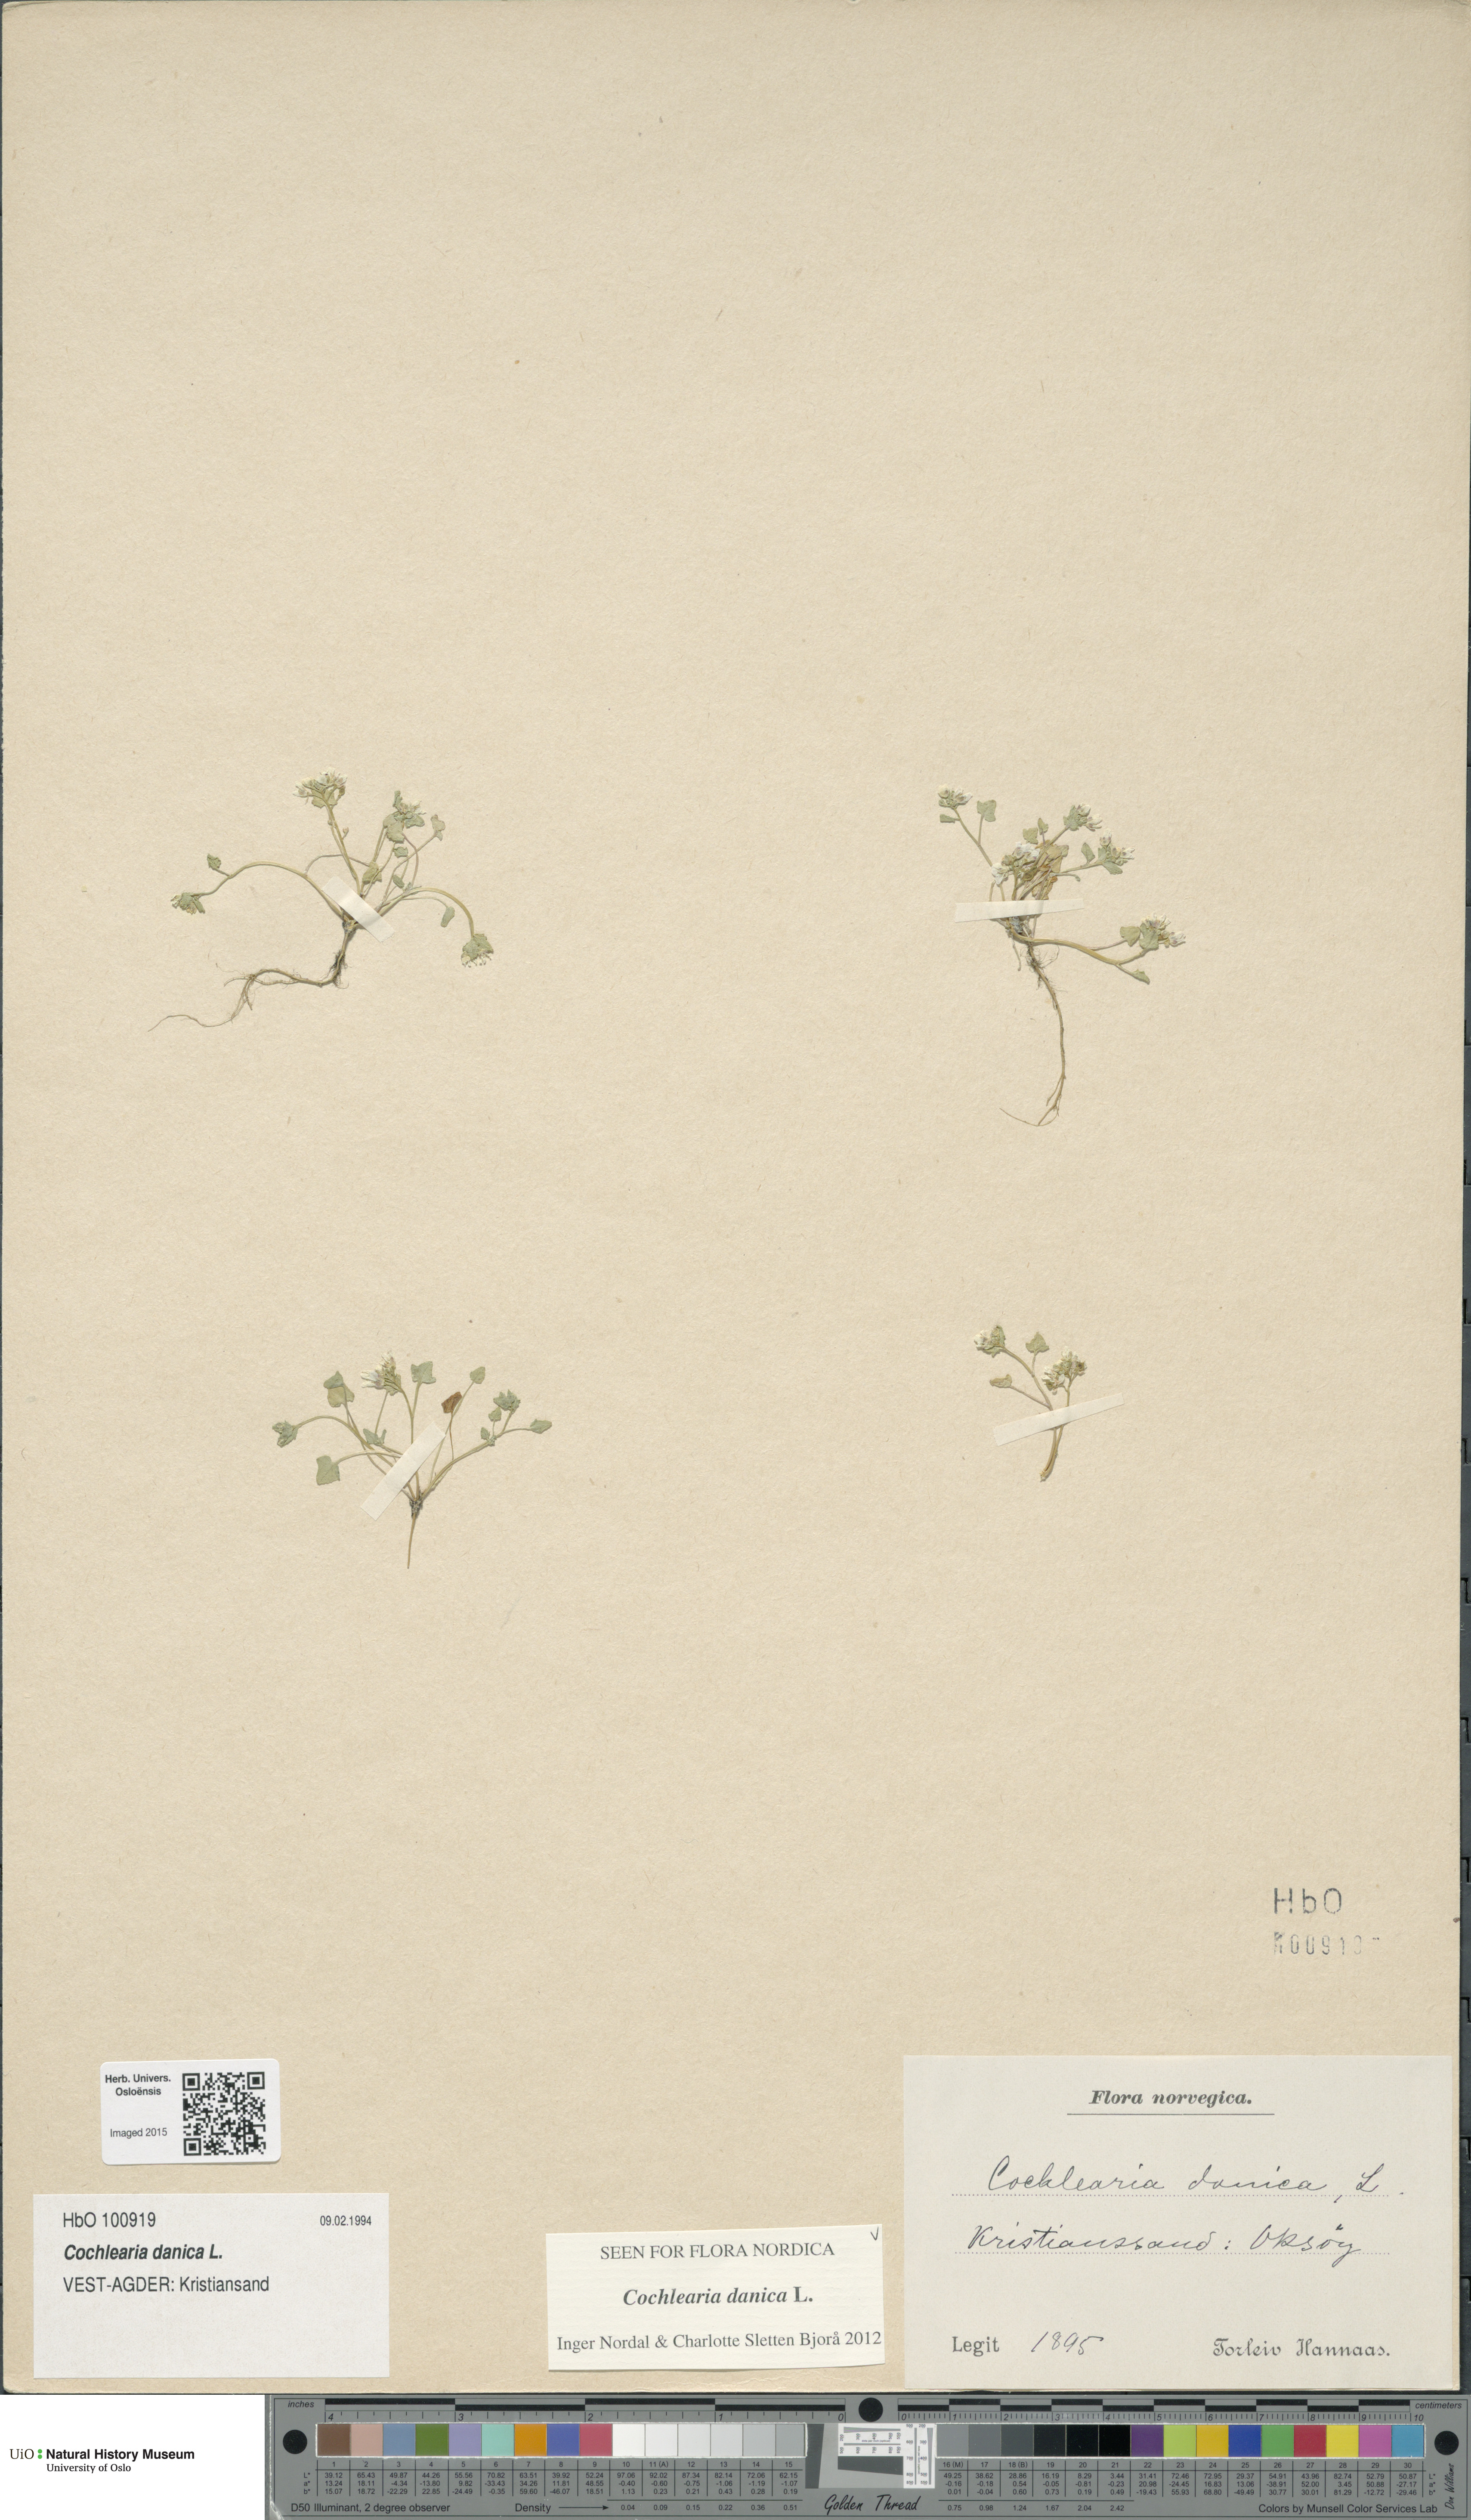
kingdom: Plantae
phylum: Tracheophyta
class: Magnoliopsida
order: Brassicales
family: Brassicaceae
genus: Cochlearia
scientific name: Cochlearia danica
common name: Early scurvygrass
